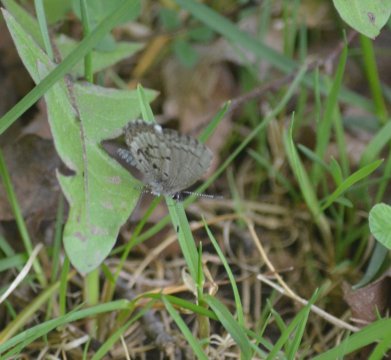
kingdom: Animalia
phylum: Arthropoda
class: Insecta
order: Lepidoptera
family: Lycaenidae
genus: Celastrina
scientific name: Celastrina lucia
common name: Northern Spring Azure
